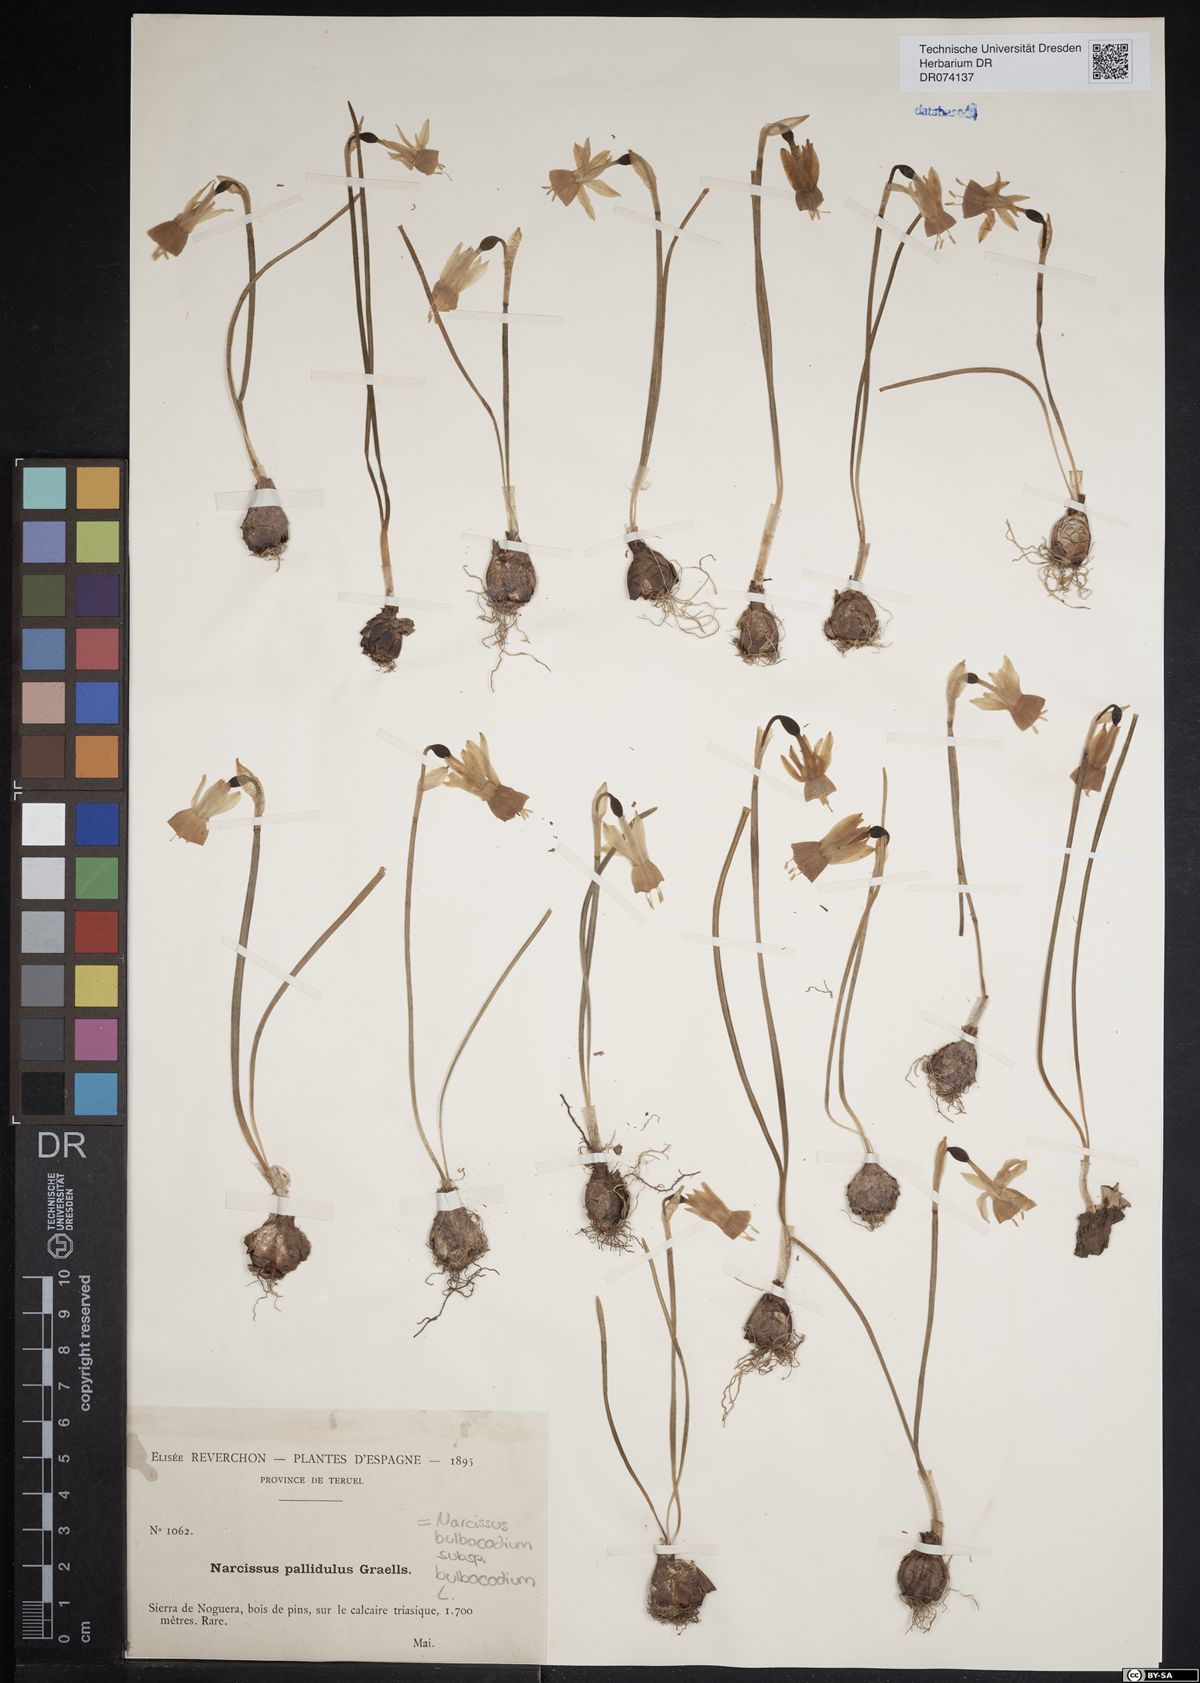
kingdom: Plantae
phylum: Tracheophyta
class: Liliopsida
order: Asparagales
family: Amaryllidaceae
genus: Narcissus
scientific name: Narcissus bulbocodium
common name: Hoop-petticoat daffodil
